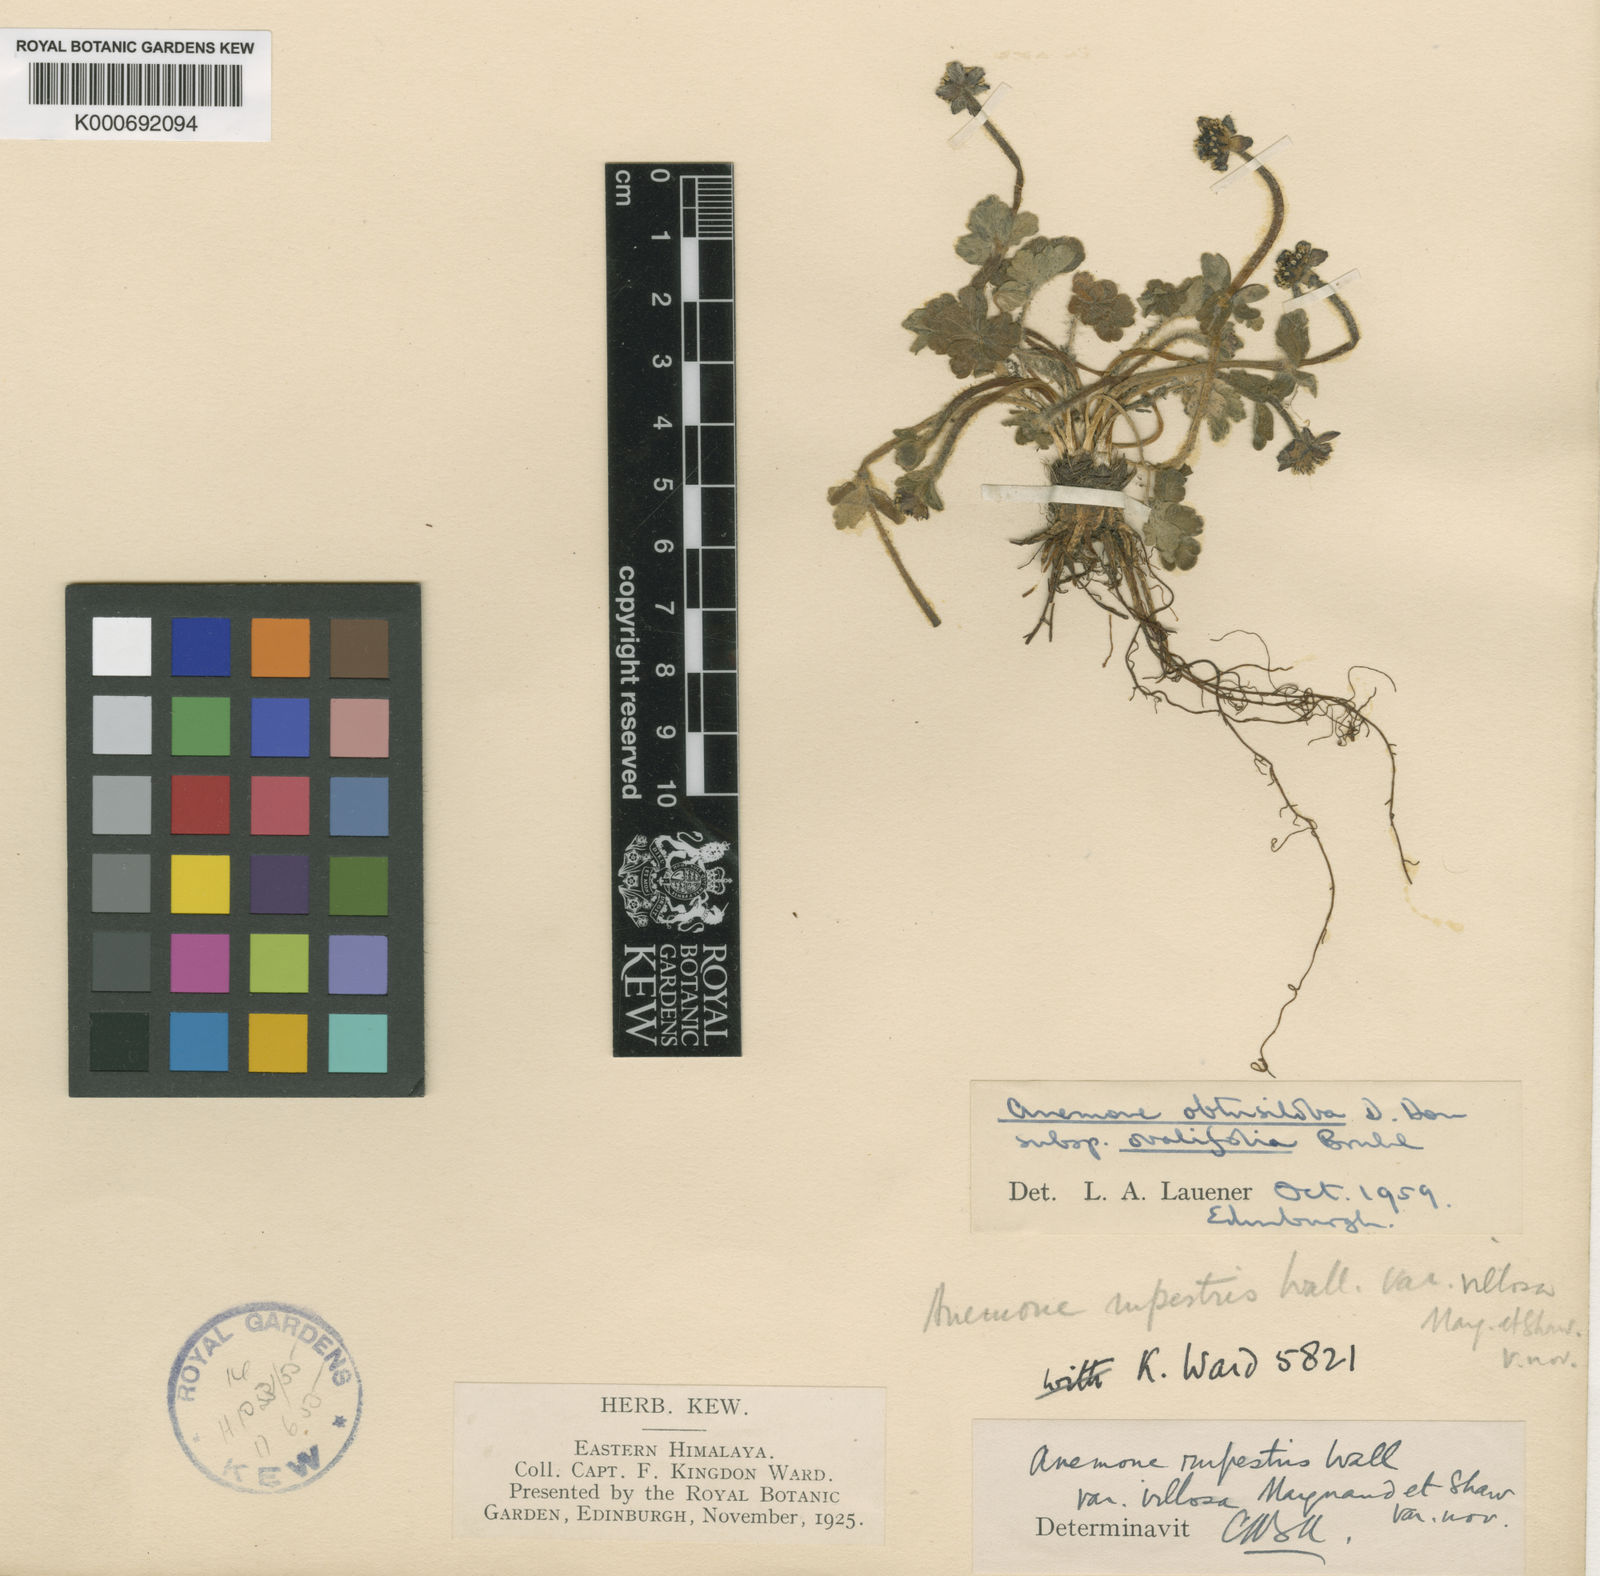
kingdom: Plantae
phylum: Tracheophyta
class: Magnoliopsida
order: Ranunculales
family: Ranunculaceae
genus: Anemonastrum
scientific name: Anemonastrum obtusilobum
